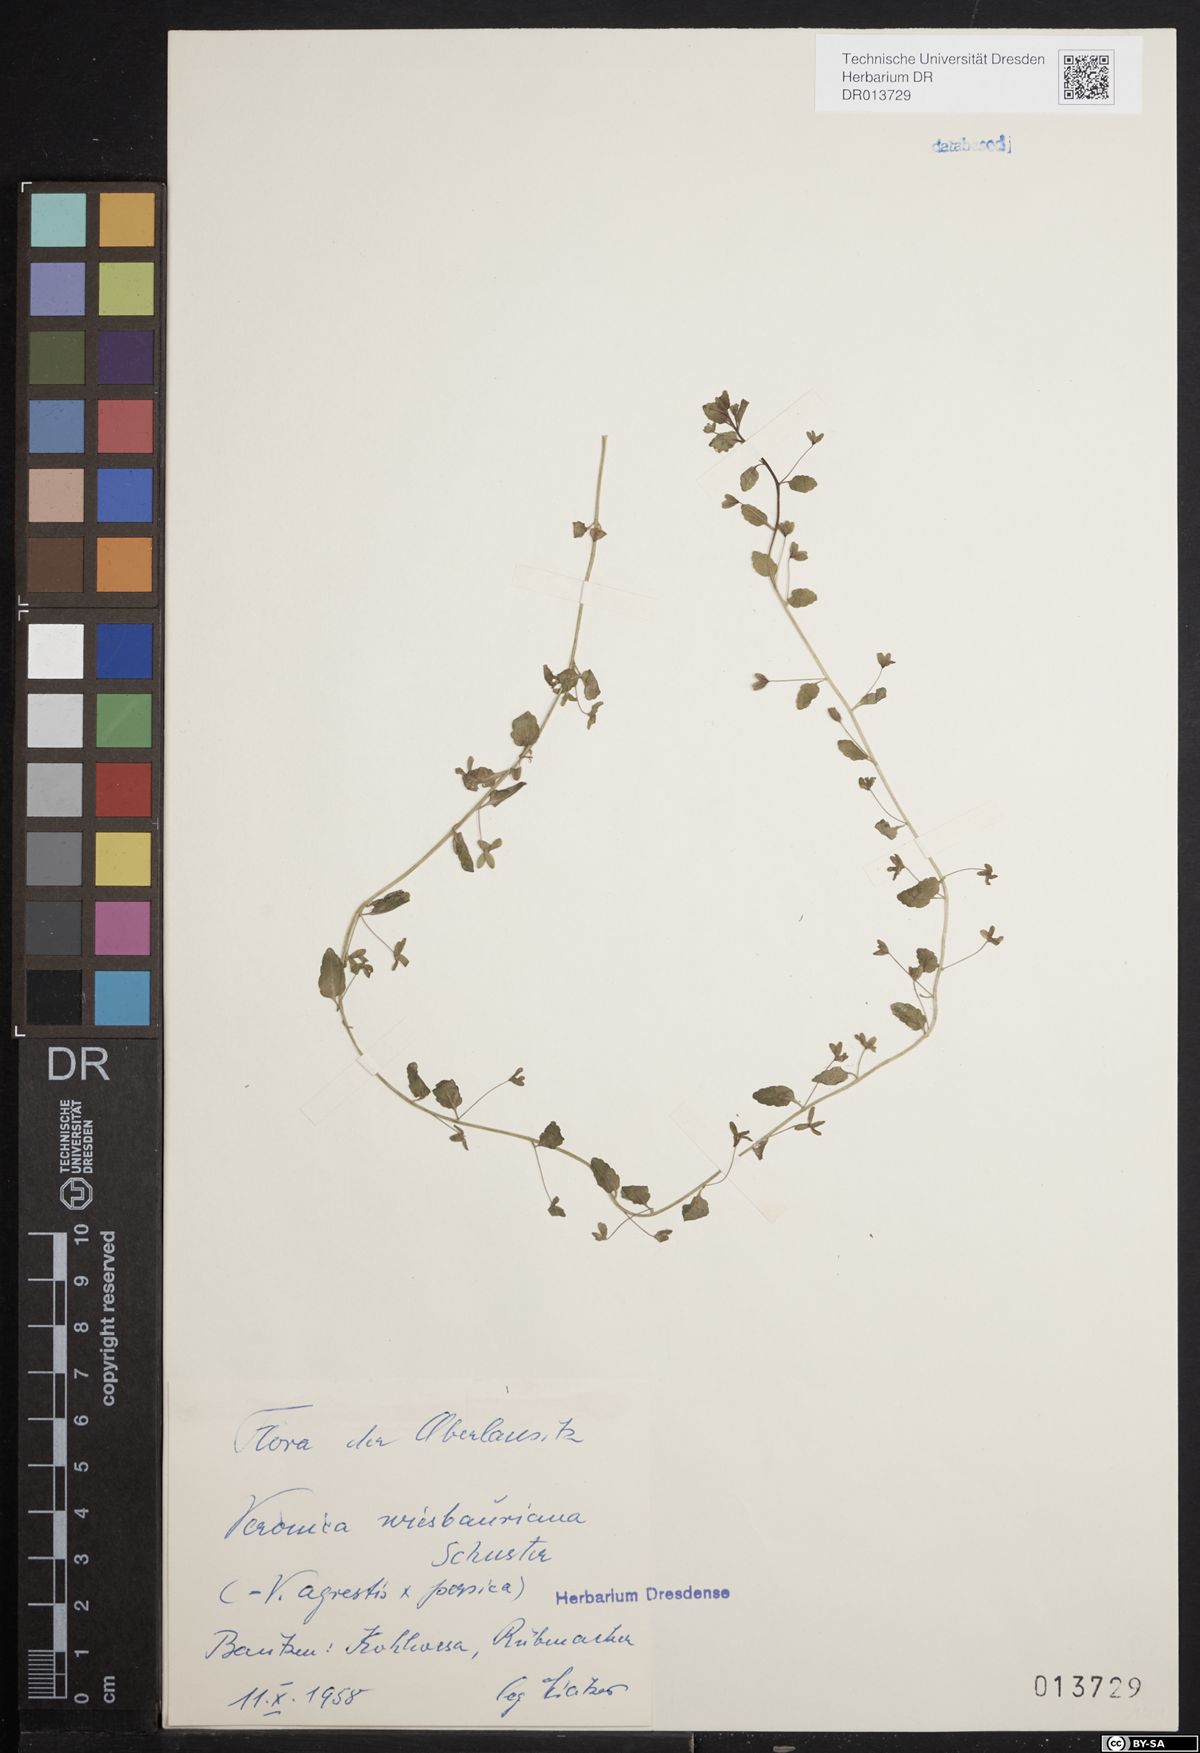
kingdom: Plantae
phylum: Tracheophyta
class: Magnoliopsida
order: Lamiales
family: Plantaginaceae
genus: Veronica
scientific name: Veronica agrestis
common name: Green field-speedwell
